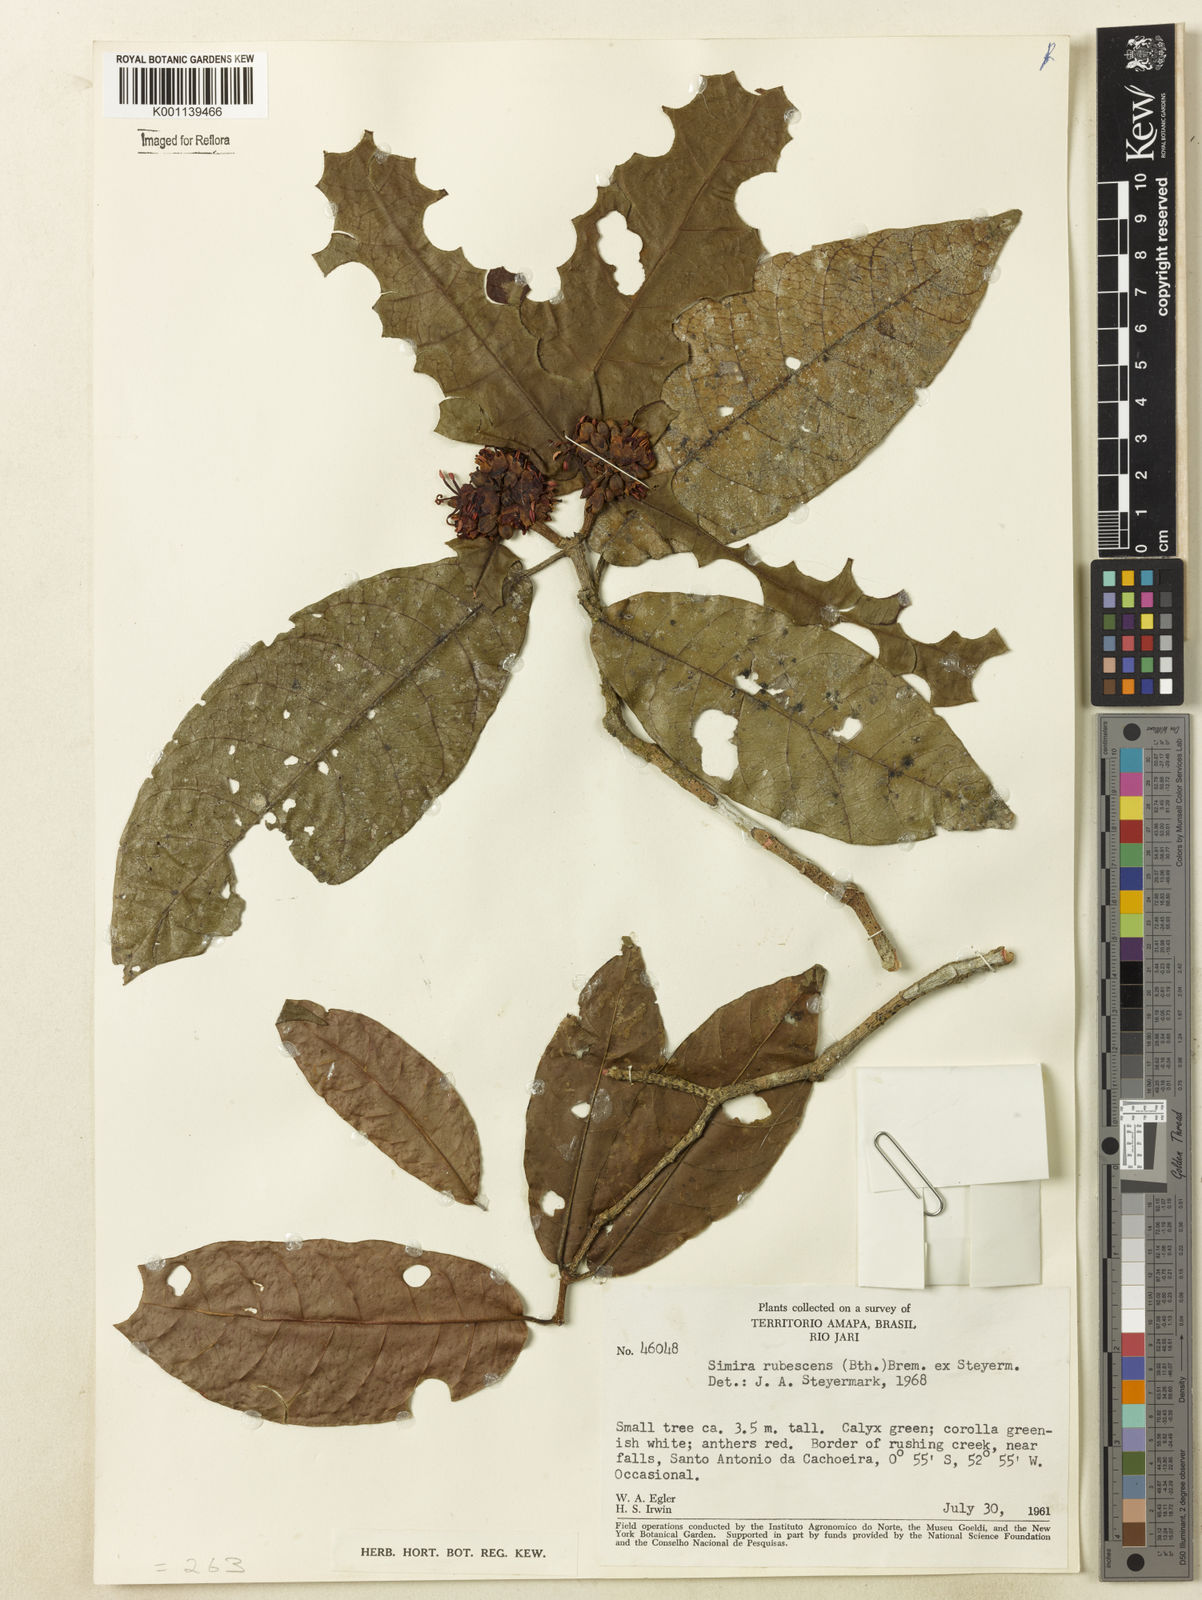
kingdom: Plantae
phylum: Tracheophyta
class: Magnoliopsida
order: Gentianales
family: Rubiaceae
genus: Simira
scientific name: Simira rubescens
